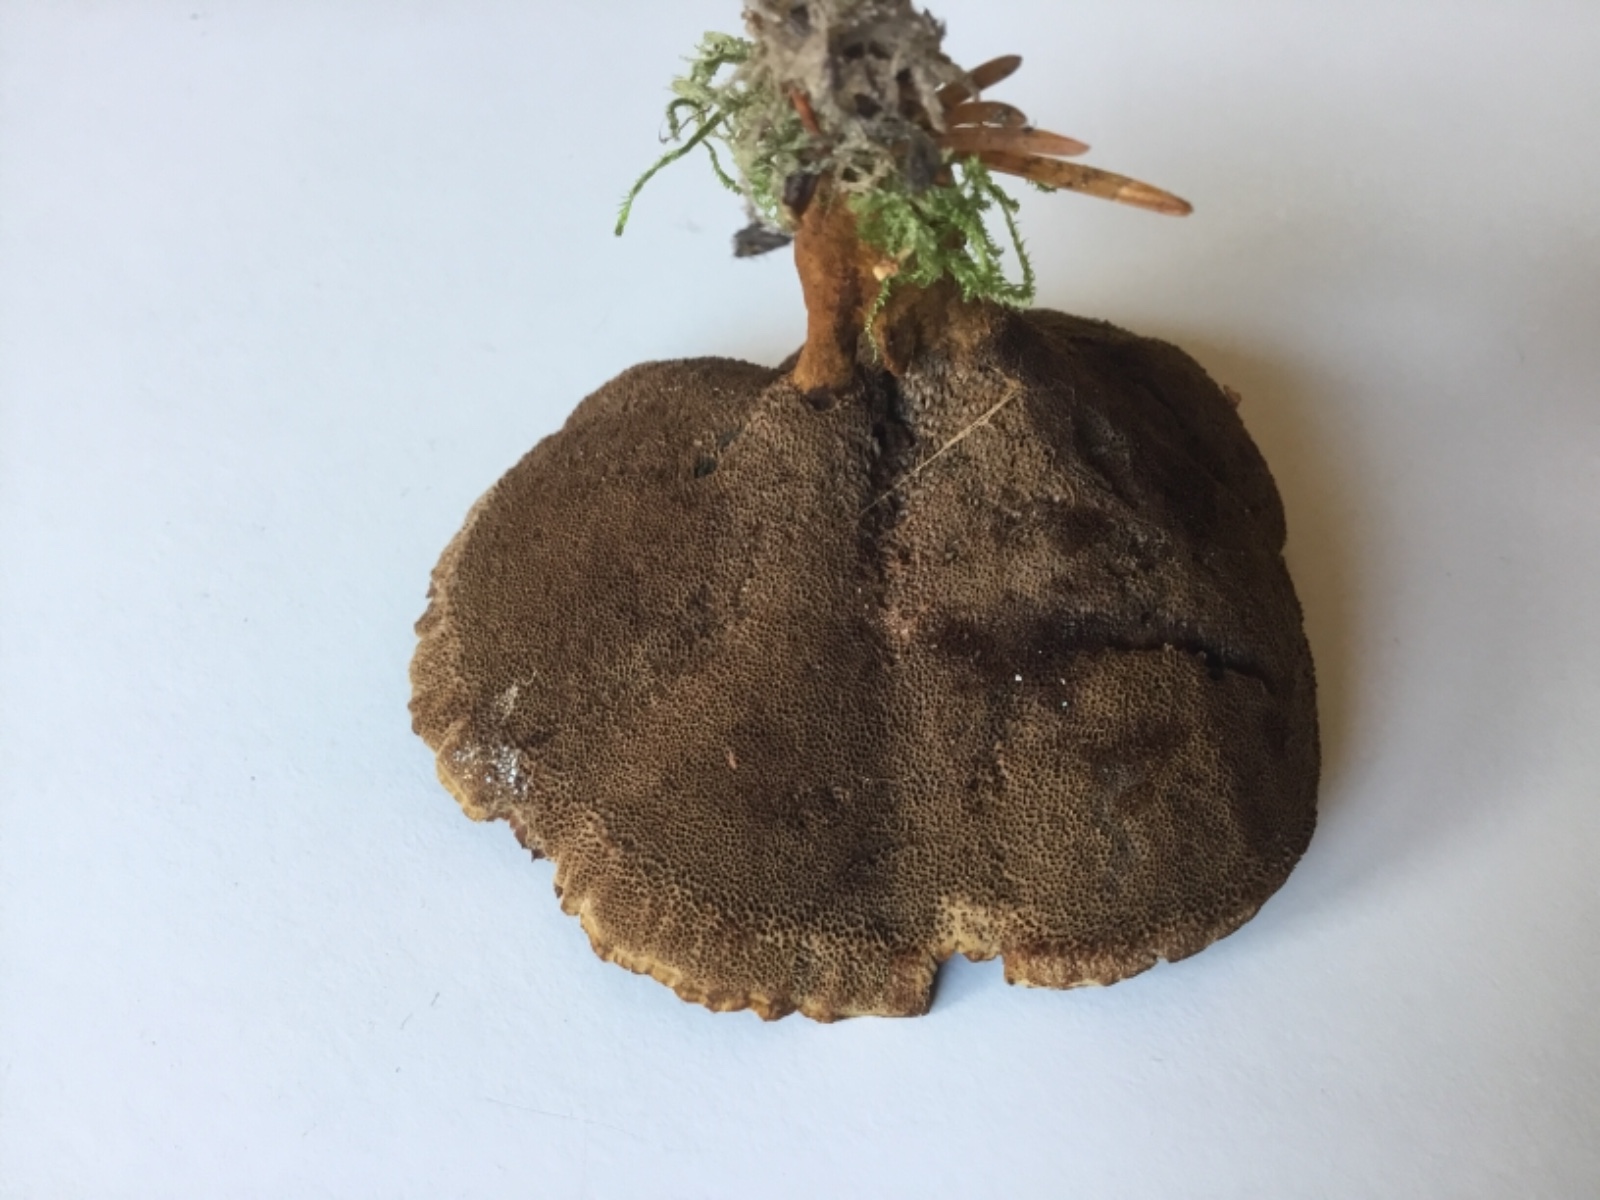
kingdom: Fungi
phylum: Basidiomycota
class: Agaricomycetes
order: Hymenochaetales
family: Hymenochaetaceae
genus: Coltricia
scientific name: Coltricia perennis
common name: almindelig sandporesvamp
